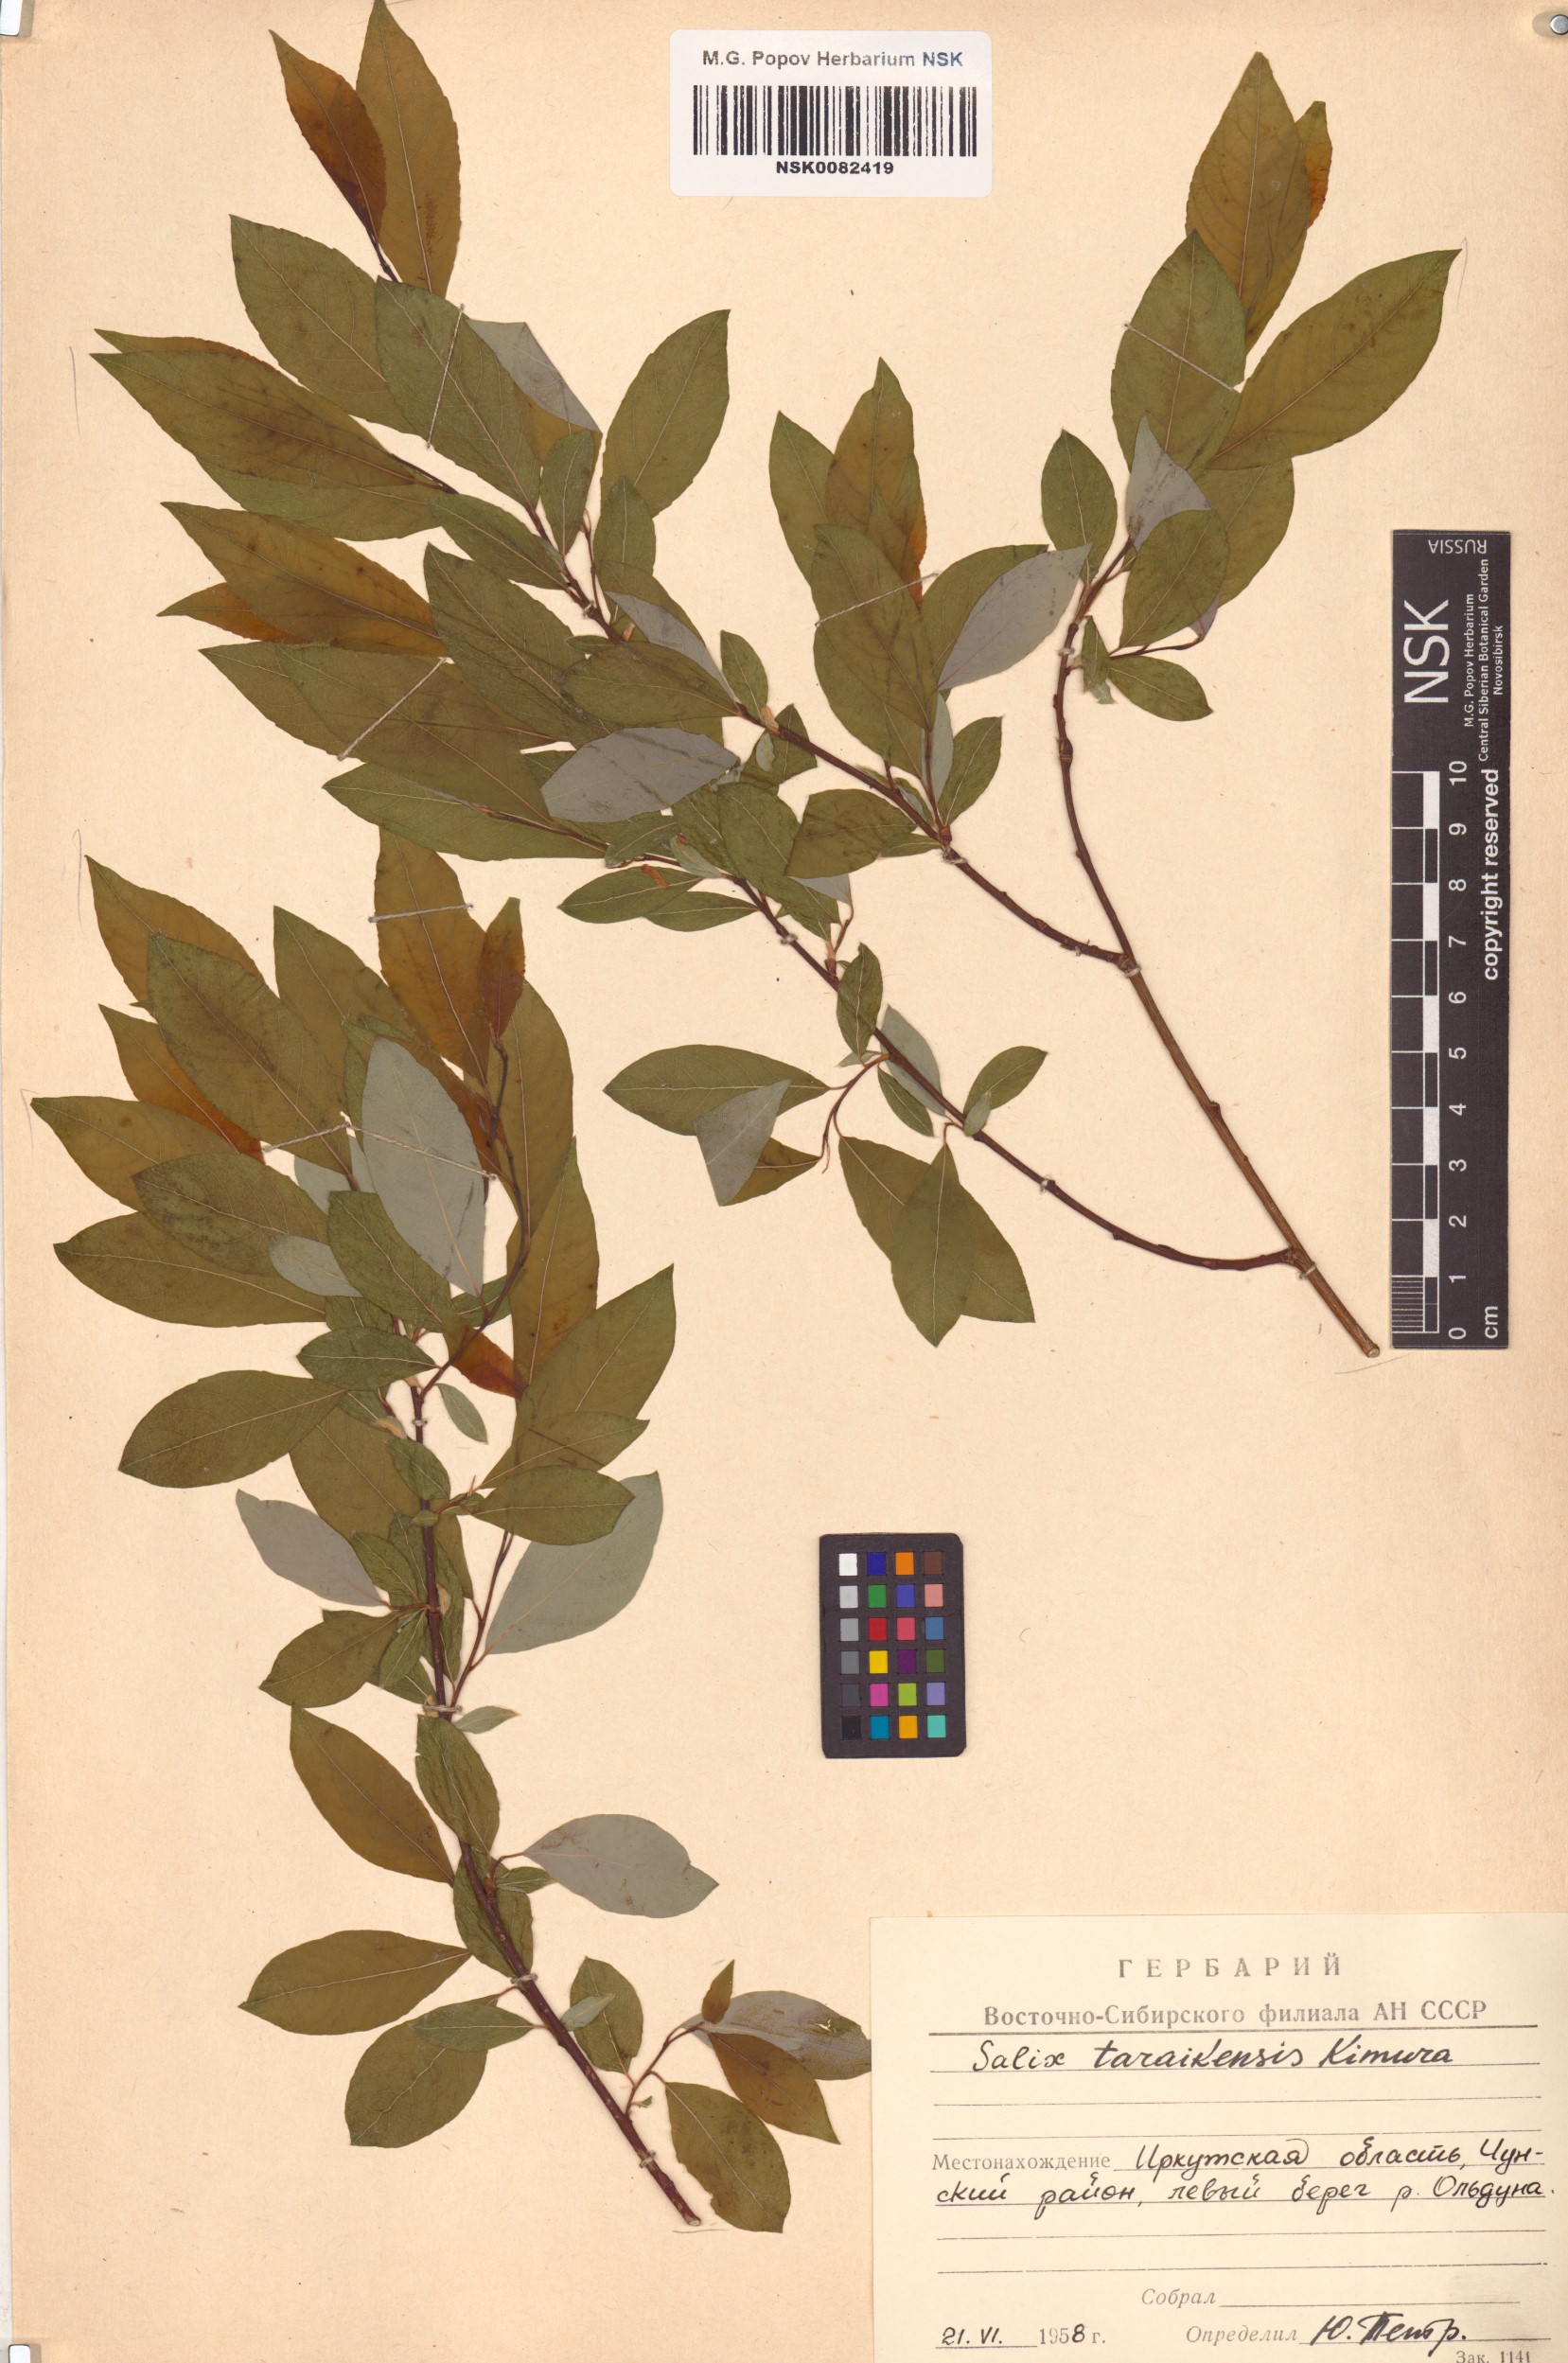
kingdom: Plantae
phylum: Tracheophyta
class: Magnoliopsida
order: Malpighiales
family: Salicaceae
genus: Salix
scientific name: Salix taraikensis
